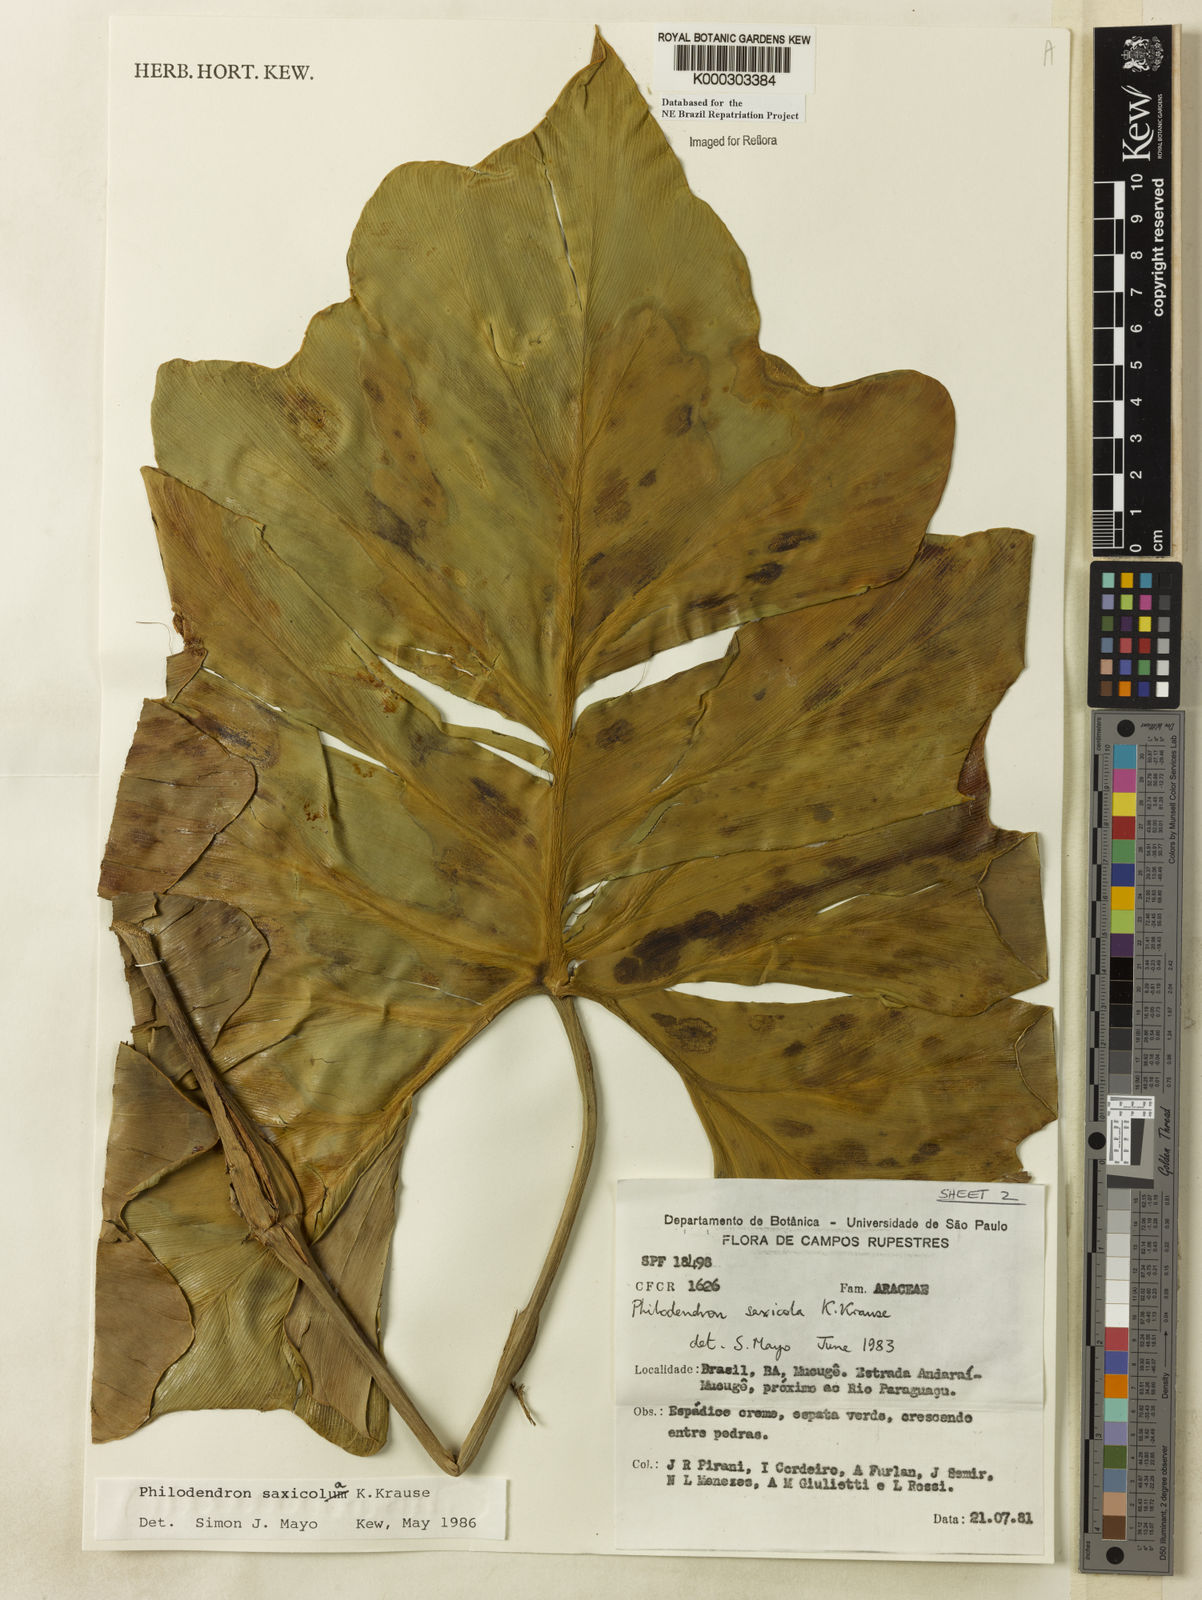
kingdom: Plantae
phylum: Tracheophyta
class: Liliopsida
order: Alismatales
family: Araceae
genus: Thaumatophyllum
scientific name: Thaumatophyllum saxicola
